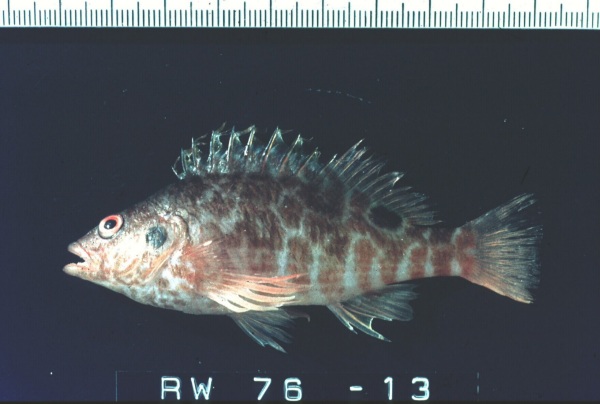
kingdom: Animalia
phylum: Chordata
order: Perciformes
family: Cirrhitidae
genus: Amblycirrhitus
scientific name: Amblycirrhitus bimacula
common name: Twinspot hawkfish
